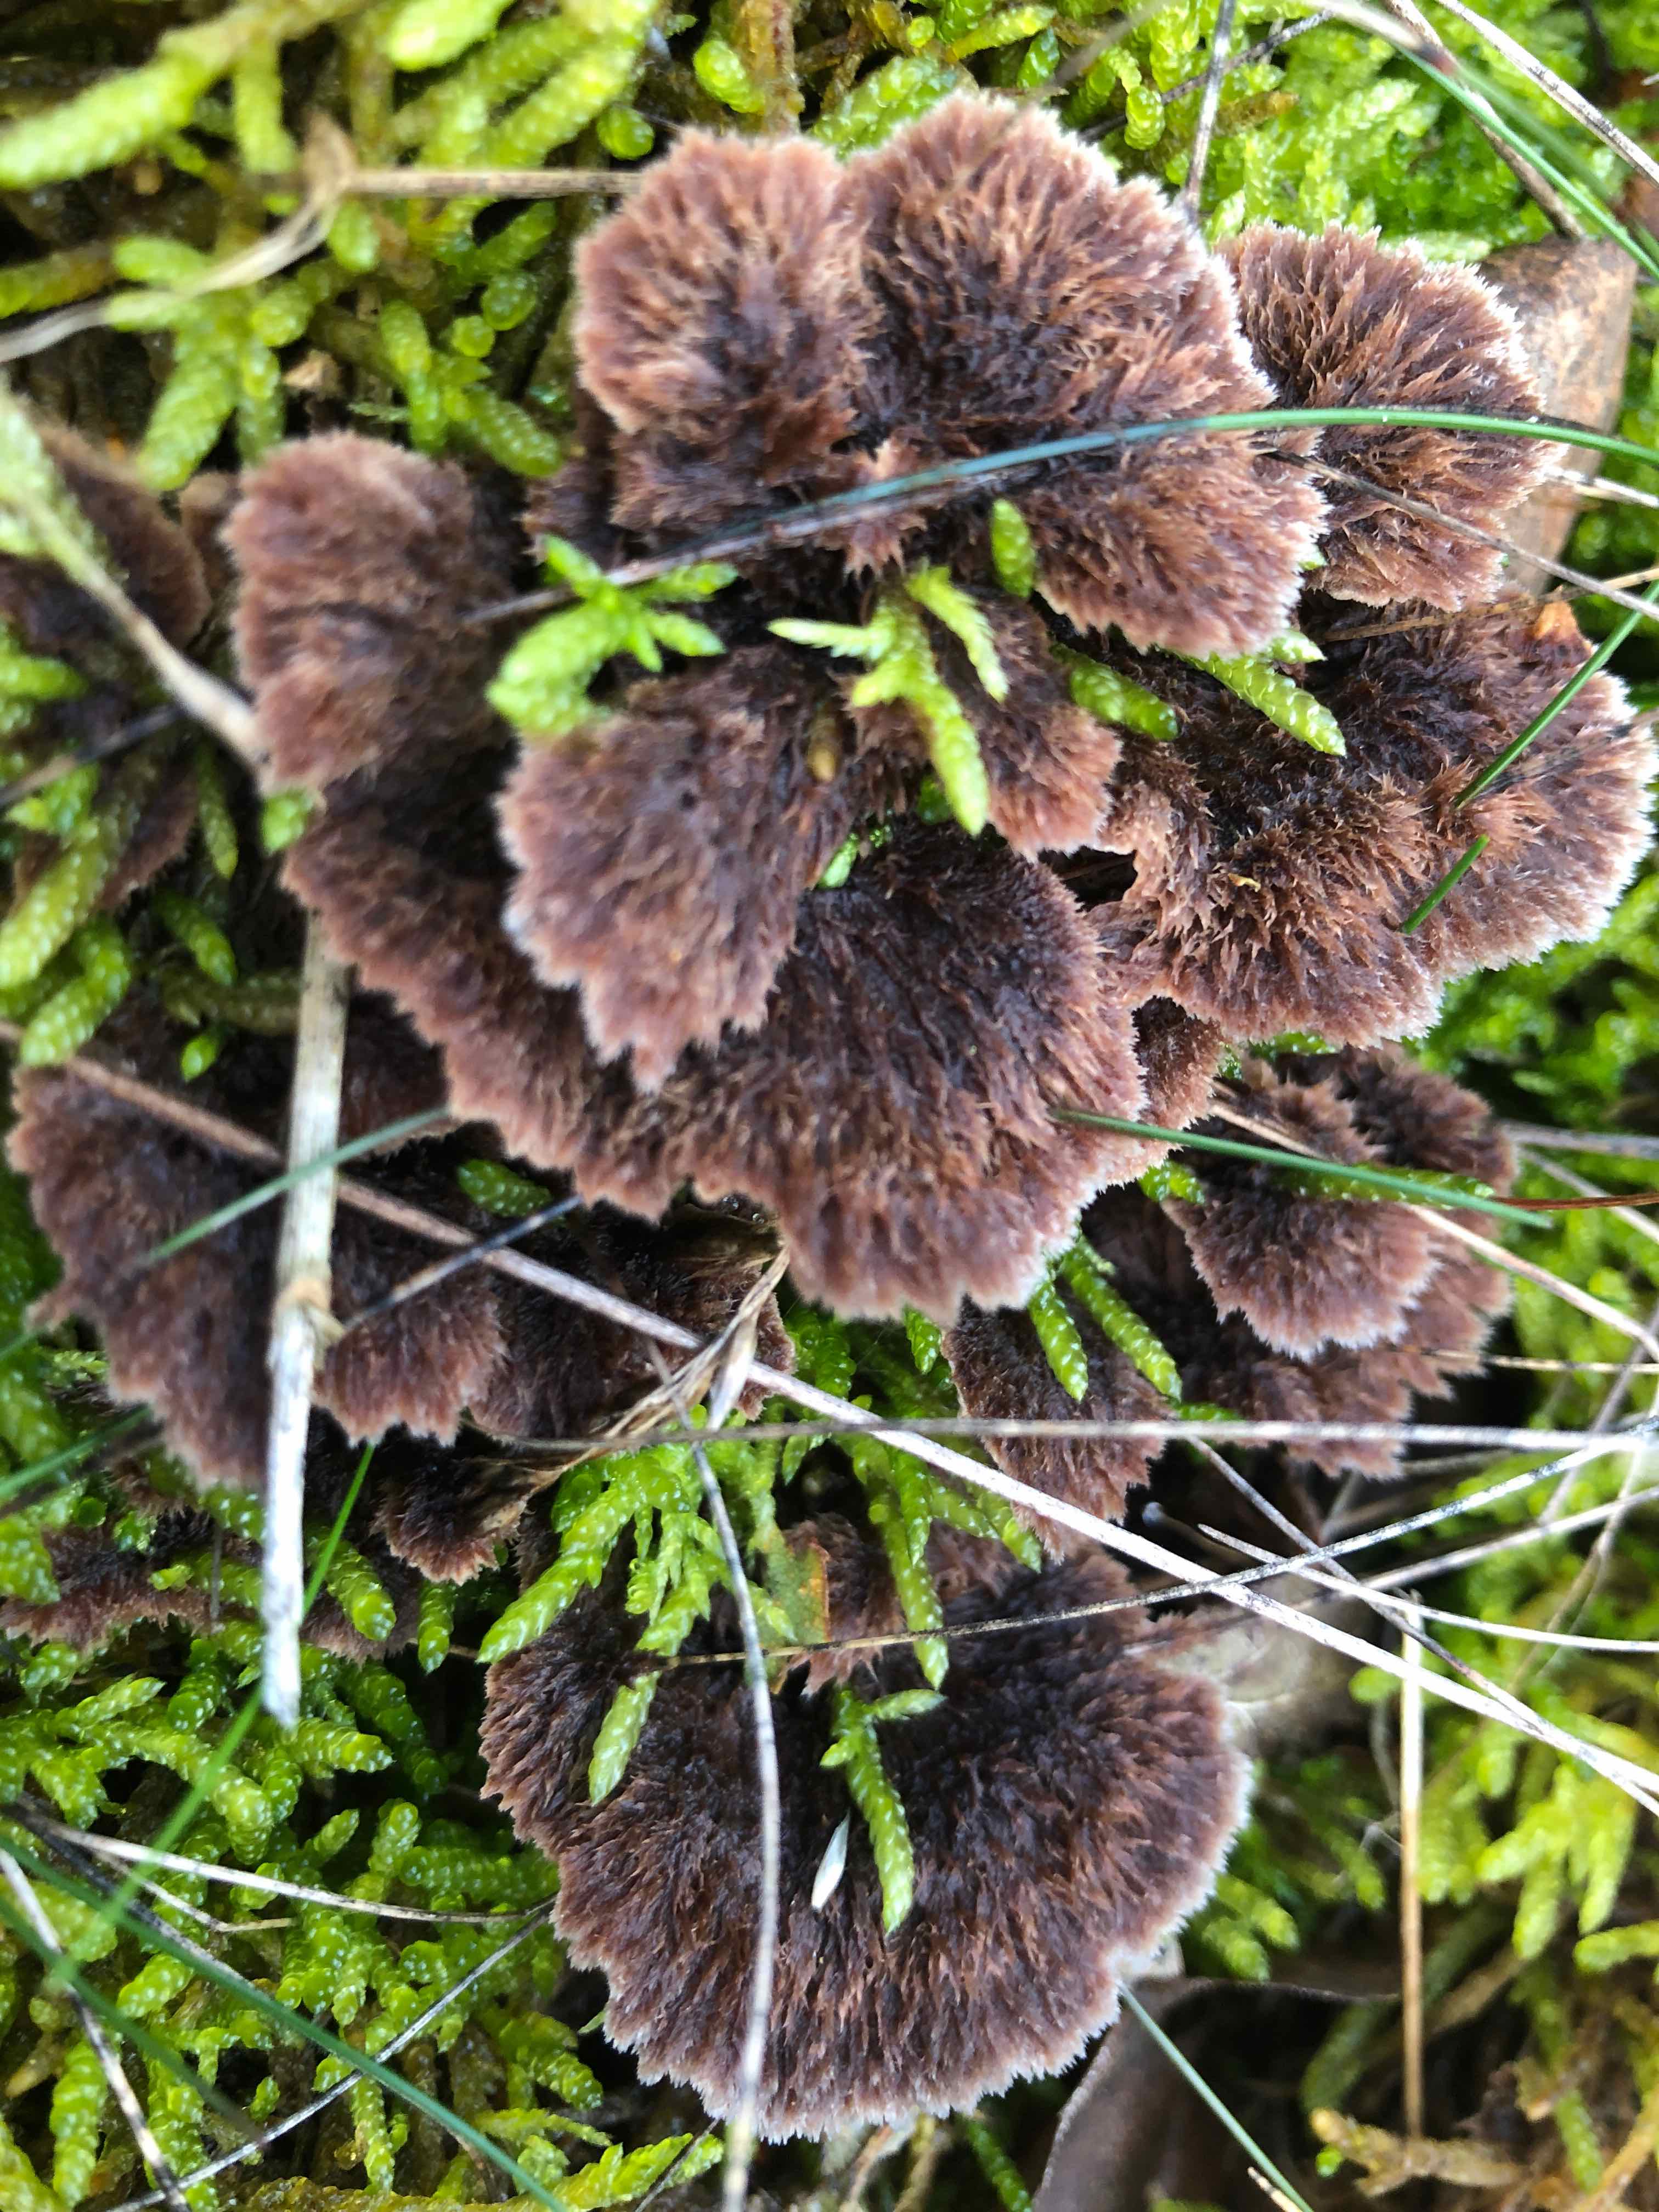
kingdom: Fungi
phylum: Basidiomycota
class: Agaricomycetes
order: Thelephorales
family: Thelephoraceae
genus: Thelephora
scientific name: Thelephora terrestris
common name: fliget frynsesvamp
